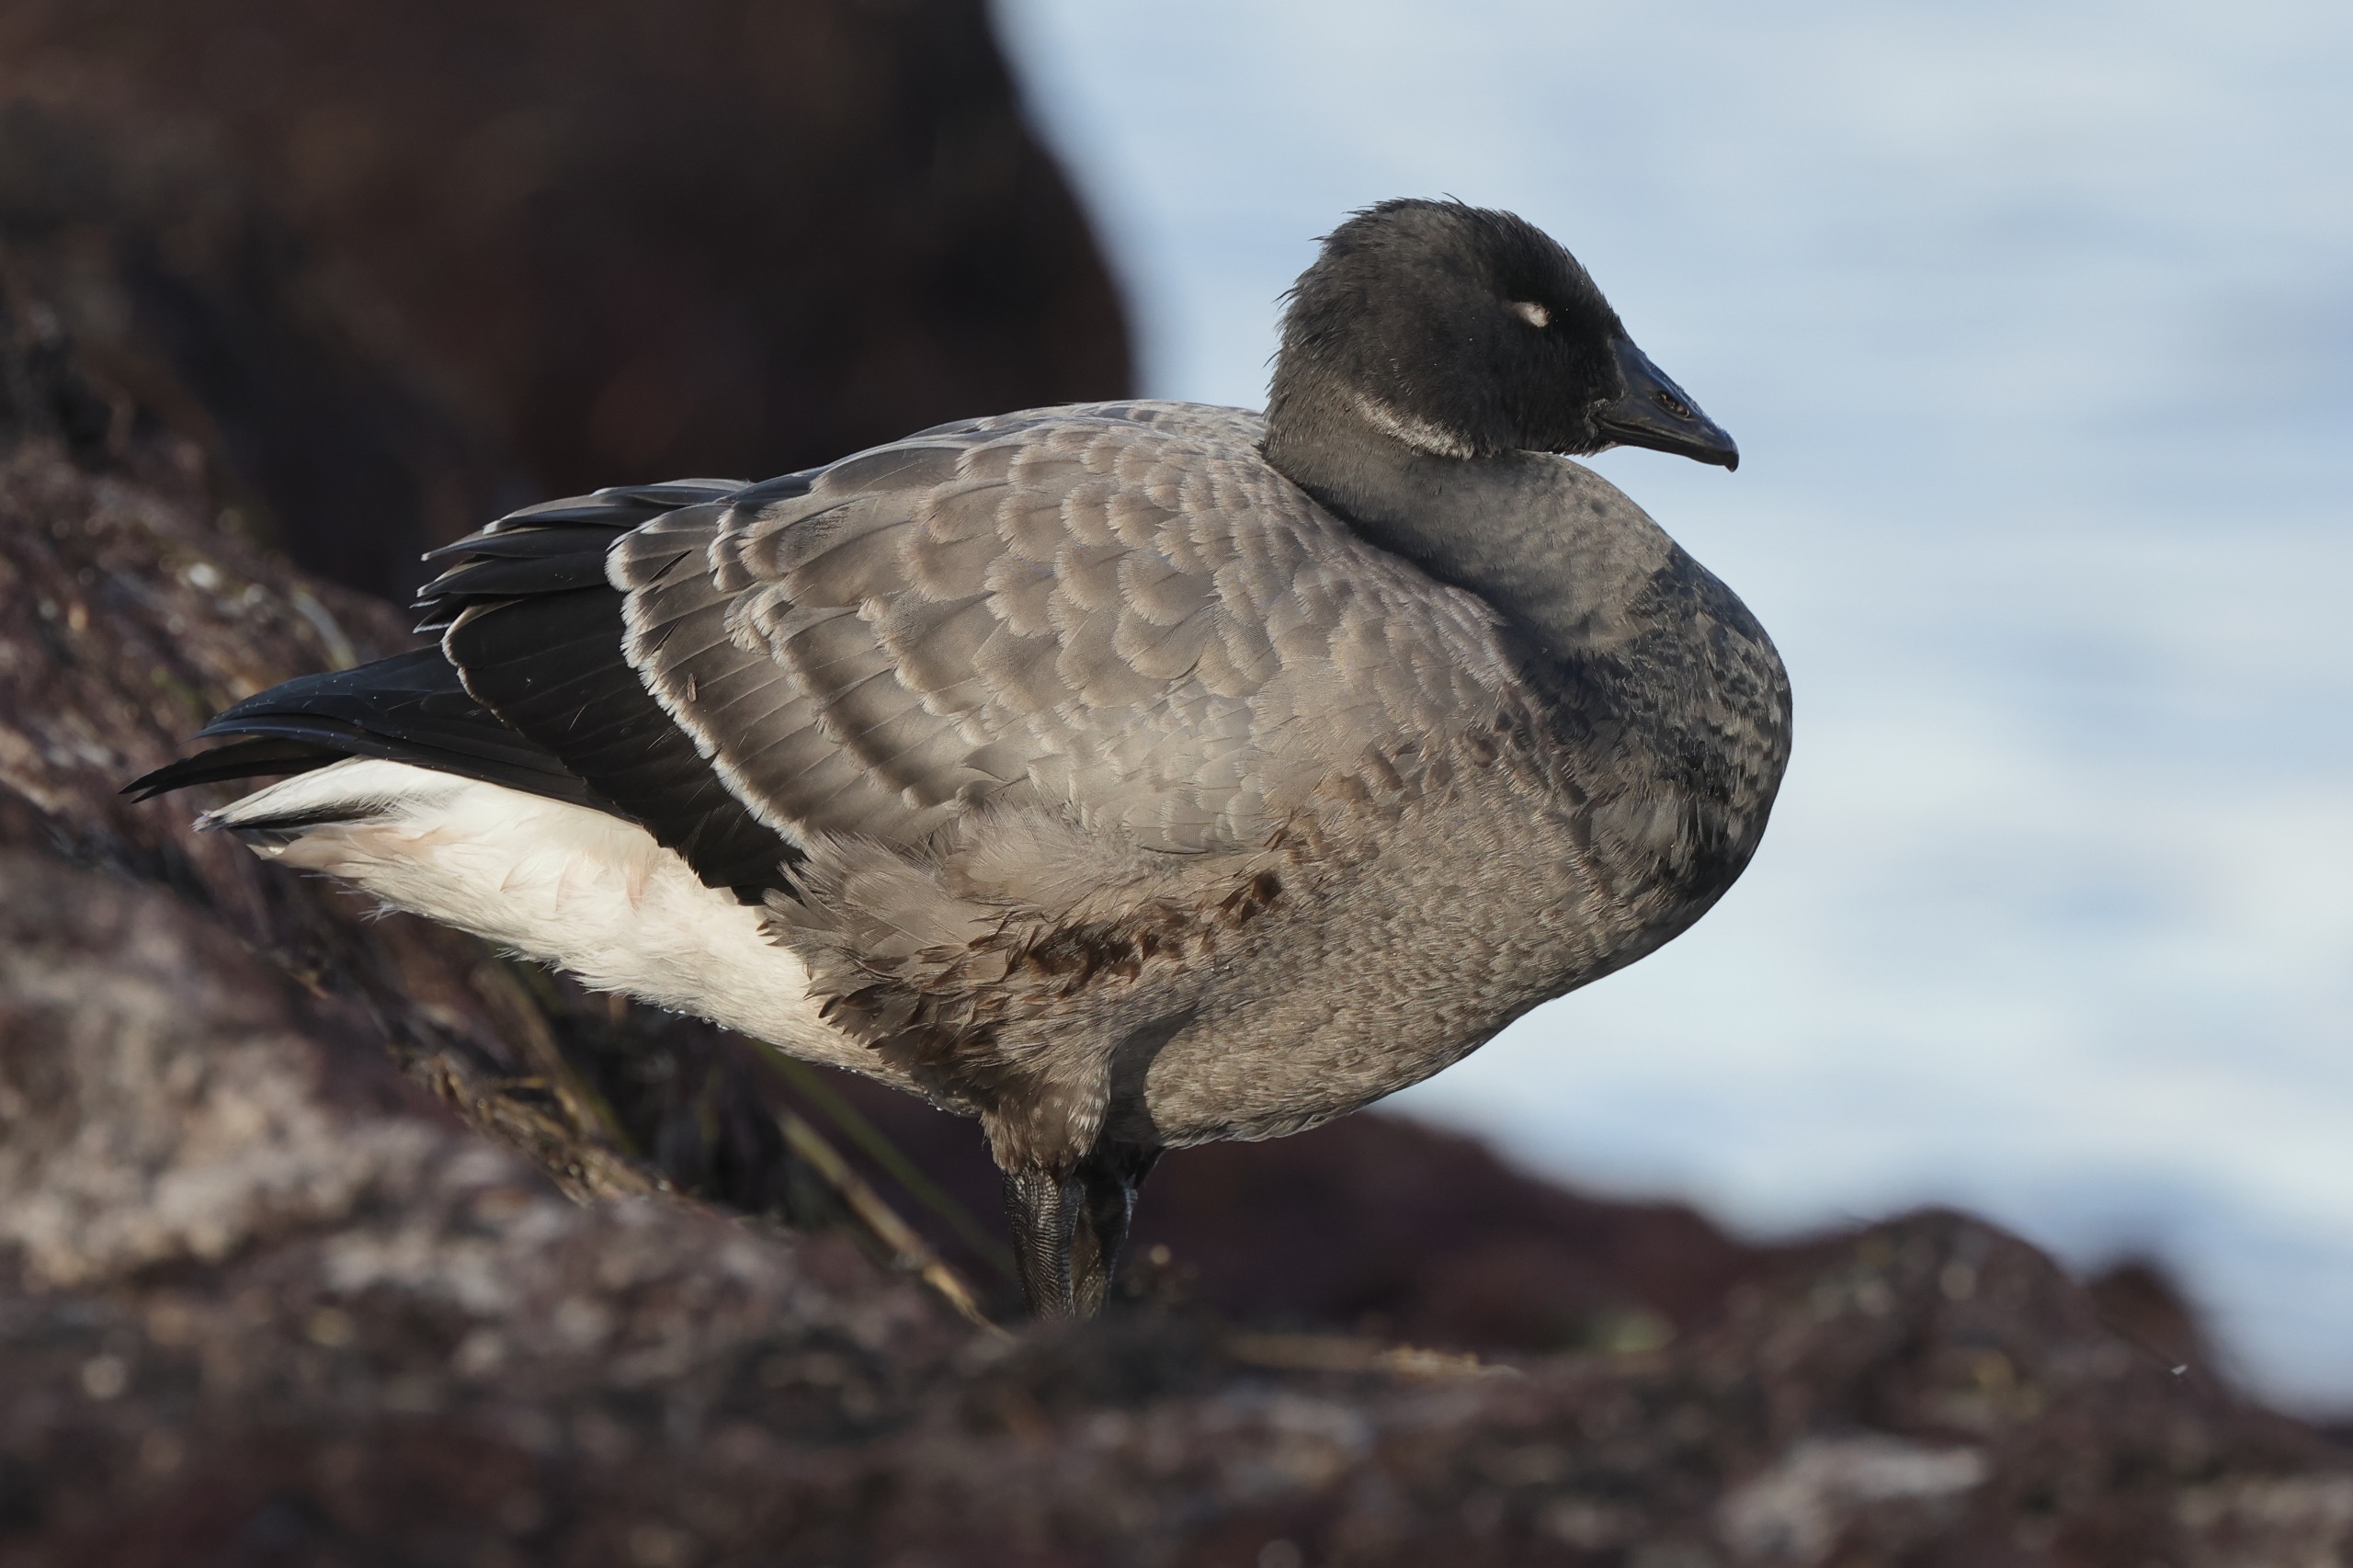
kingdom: Animalia
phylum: Chordata
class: Aves
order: Anseriformes
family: Anatidae
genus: Branta
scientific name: Branta bernicla
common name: Knortegås
